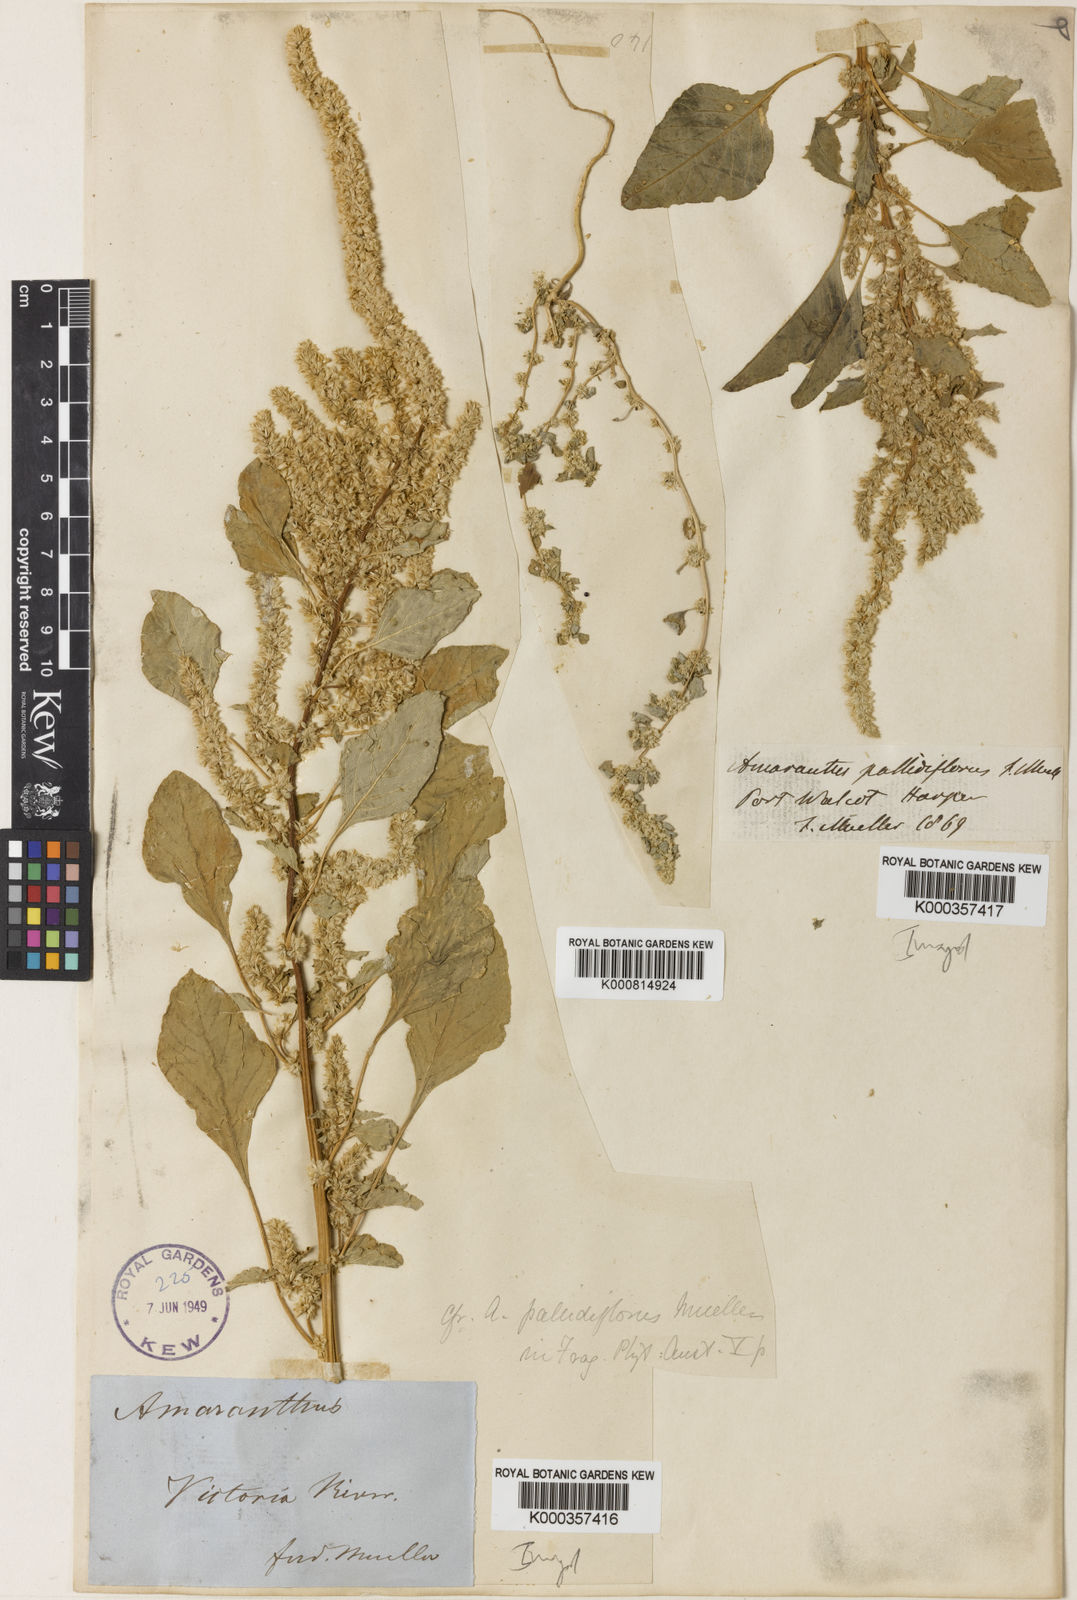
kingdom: Plantae
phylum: Tracheophyta
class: Magnoliopsida
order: Caryophyllales
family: Amaranthaceae
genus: Amaranthus
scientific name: Amaranthus undulatus
